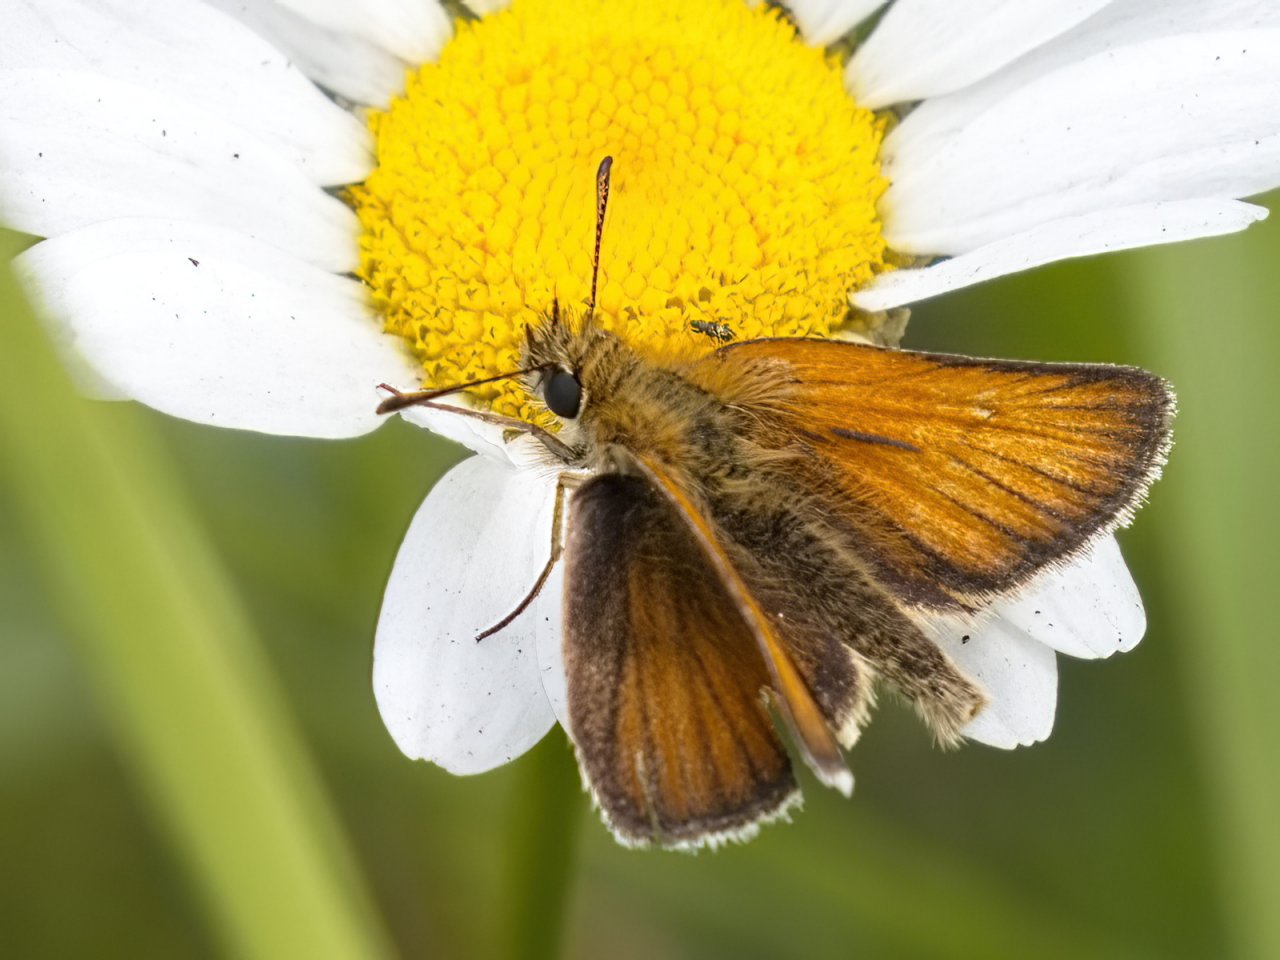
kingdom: Animalia
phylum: Arthropoda
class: Insecta
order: Lepidoptera
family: Hesperiidae
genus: Thymelicus
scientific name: Thymelicus lineola
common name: European Skipper
